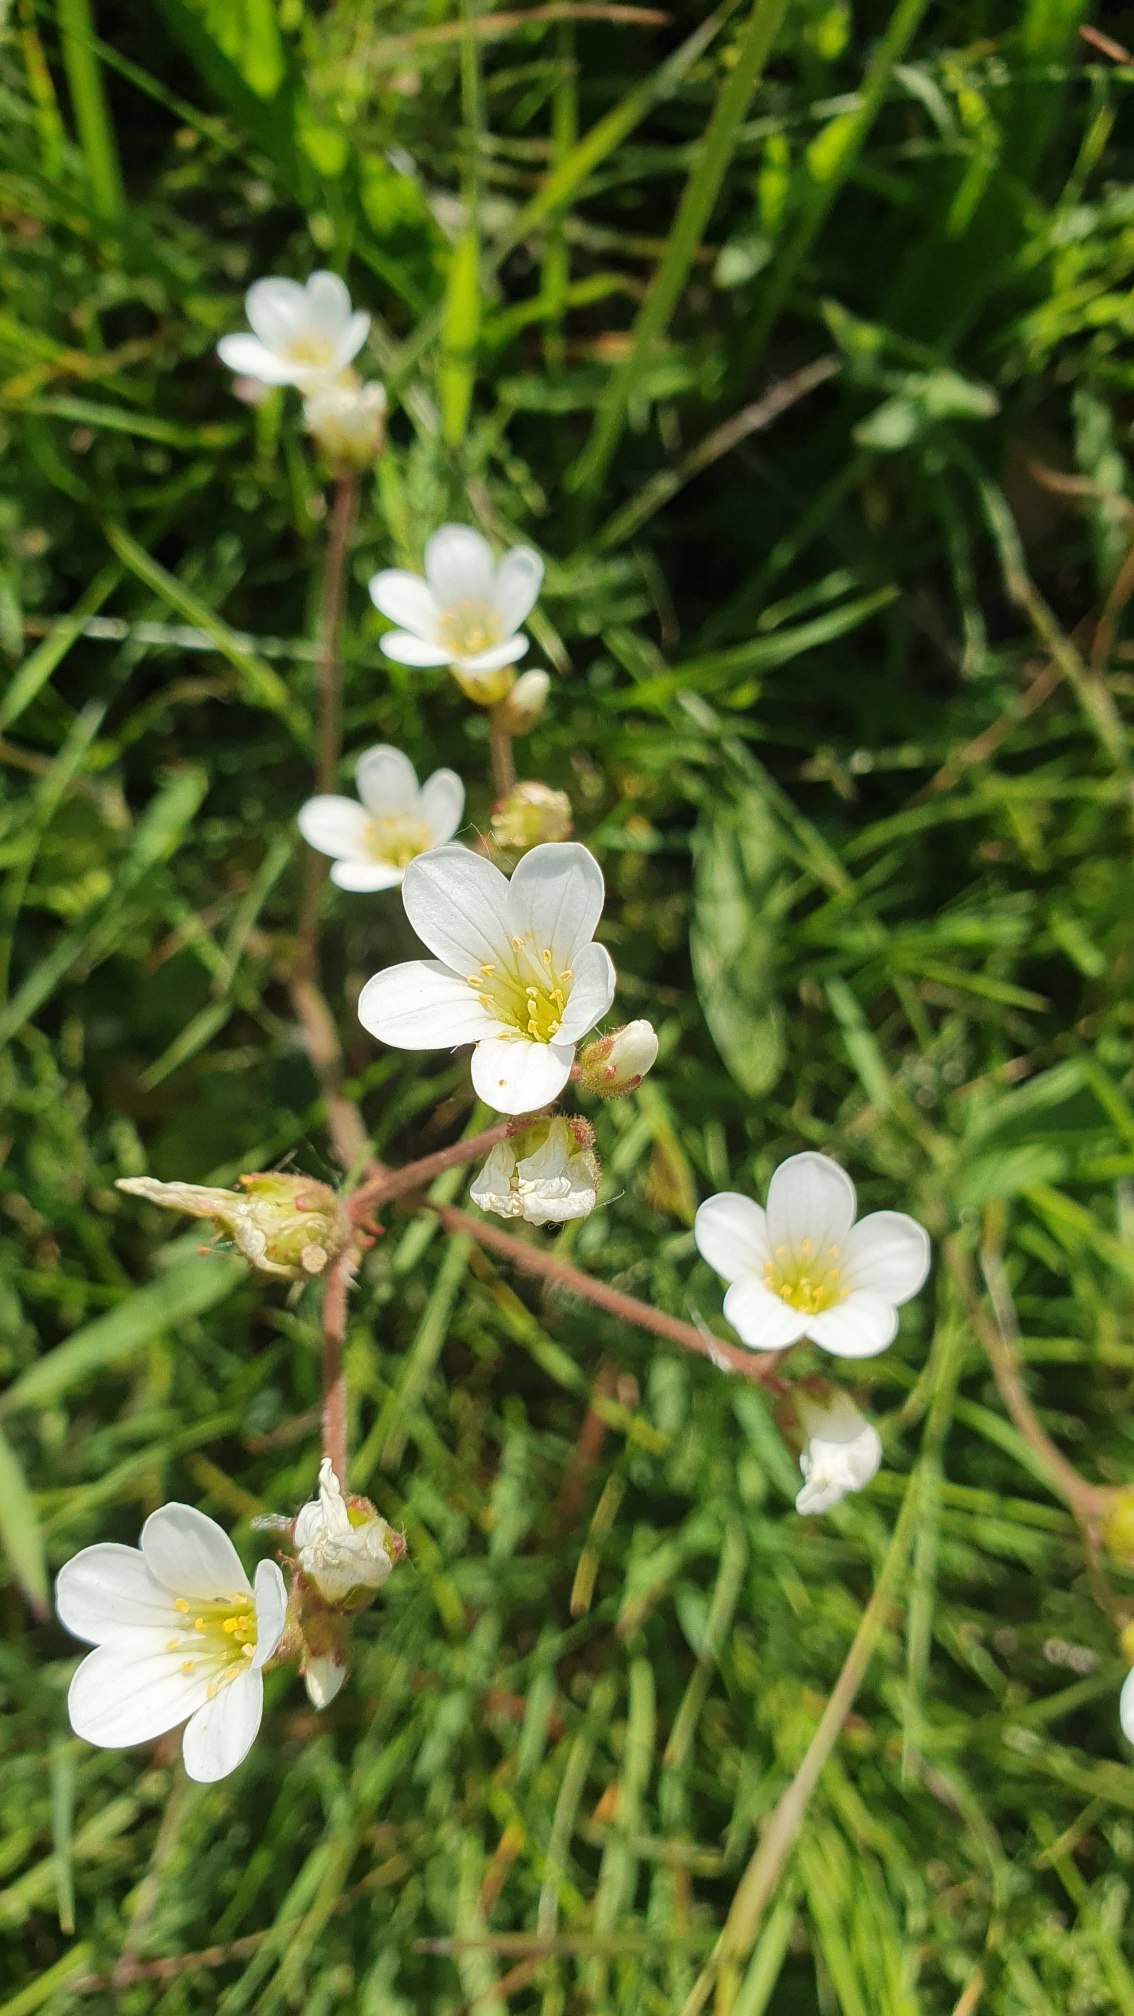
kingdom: Plantae
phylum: Tracheophyta
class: Magnoliopsida
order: Saxifragales
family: Saxifragaceae
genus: Saxifraga
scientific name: Saxifraga granulata
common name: Kornet stenbræk
